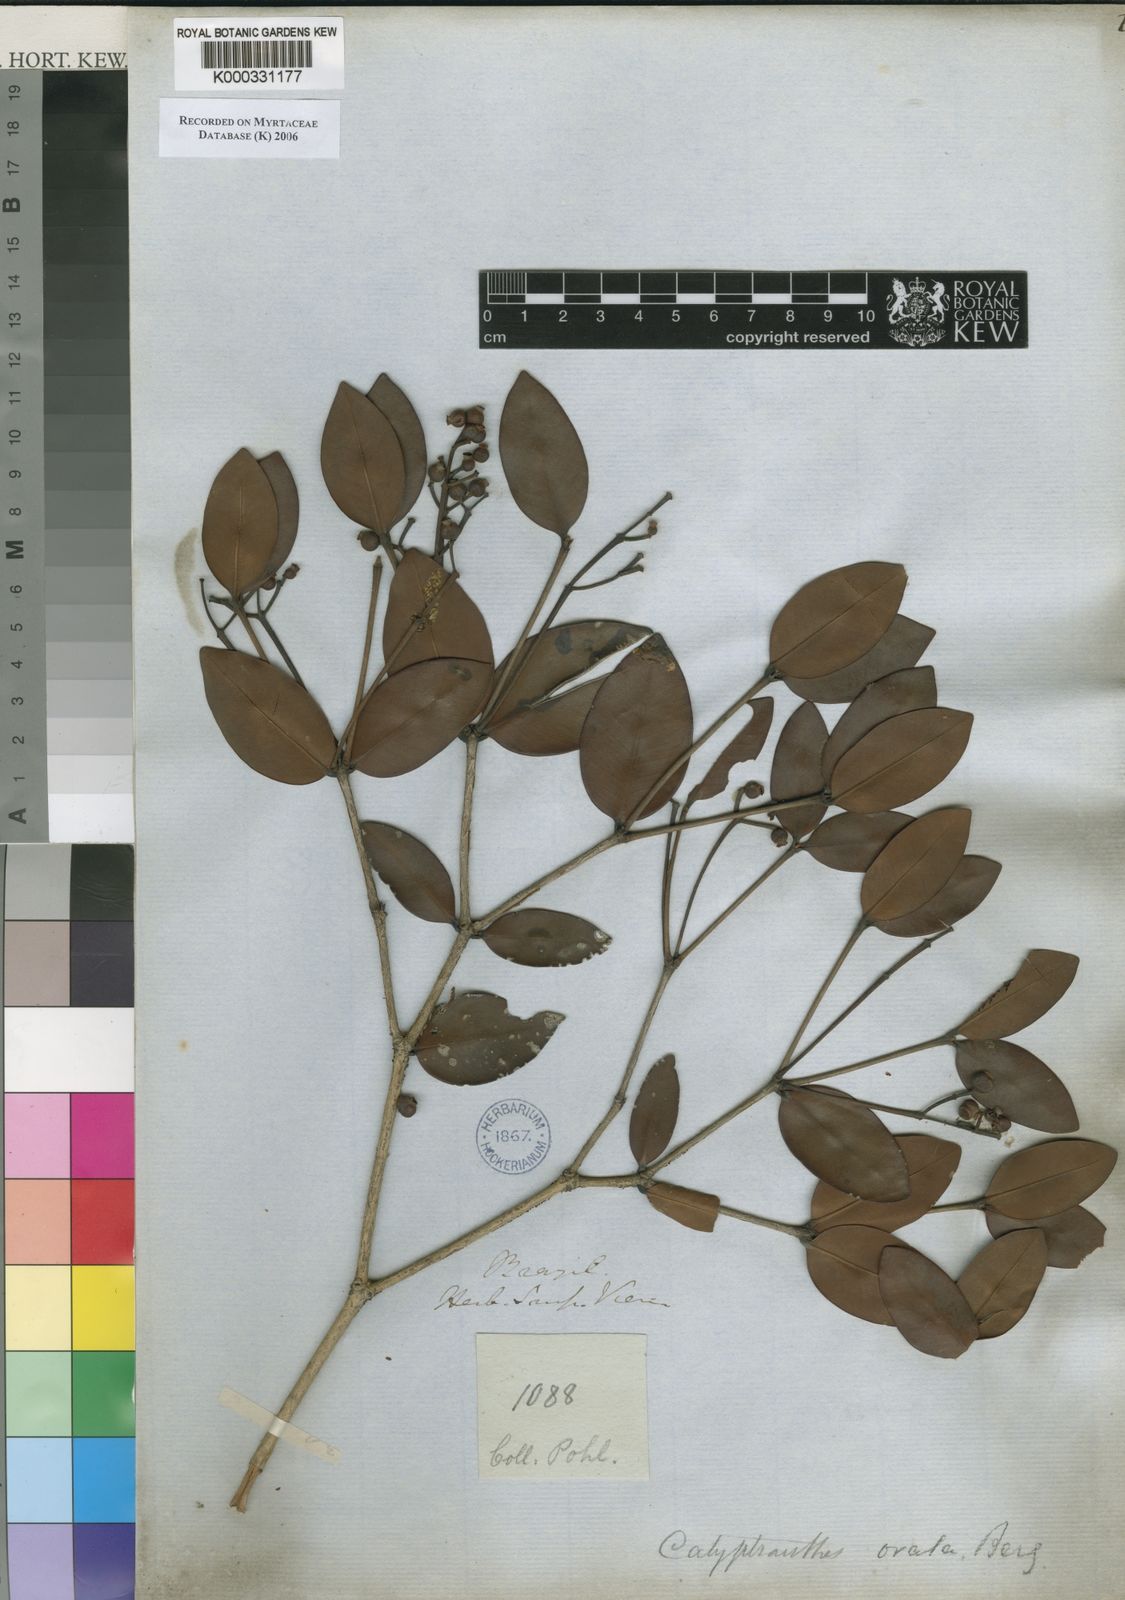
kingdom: Plantae
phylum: Tracheophyta
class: Magnoliopsida
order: Myrtales
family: Myrtaceae
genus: Calyptranthes
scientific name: Calyptranthes ovata
